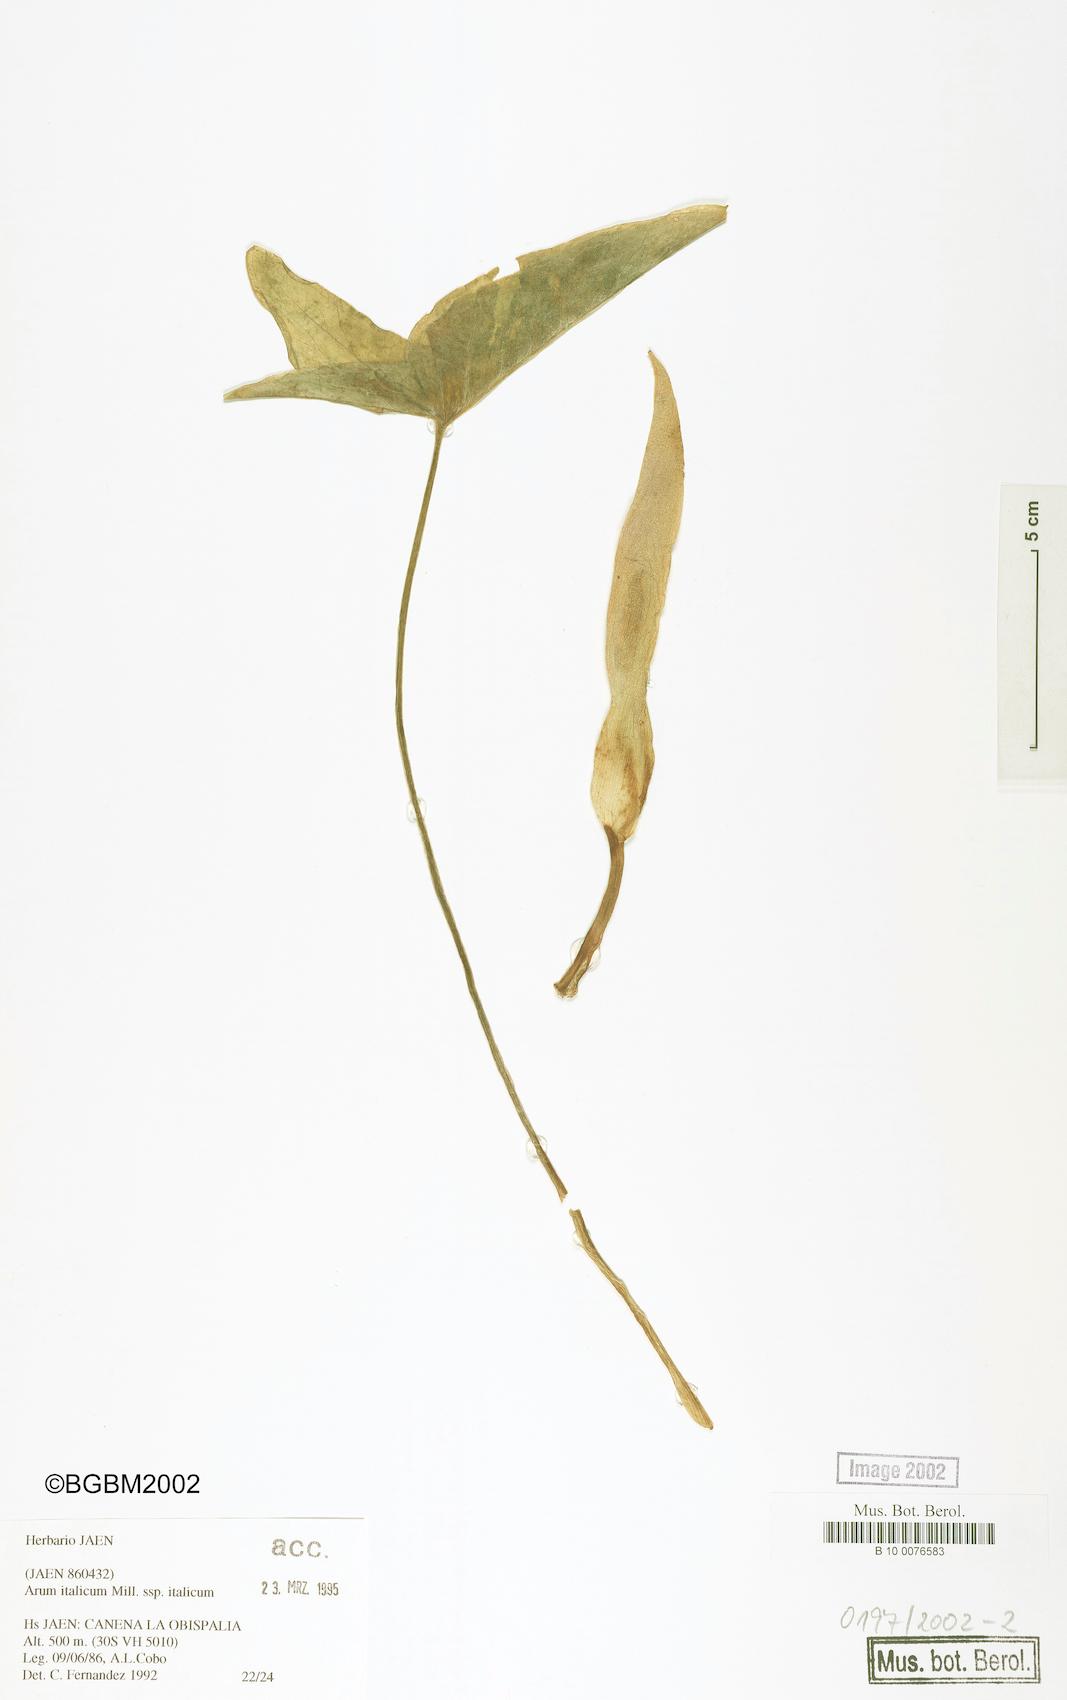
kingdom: Plantae
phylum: Tracheophyta
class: Liliopsida
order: Alismatales
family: Araceae
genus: Arum
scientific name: Arum italicum
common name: Italian lords-and-ladies
